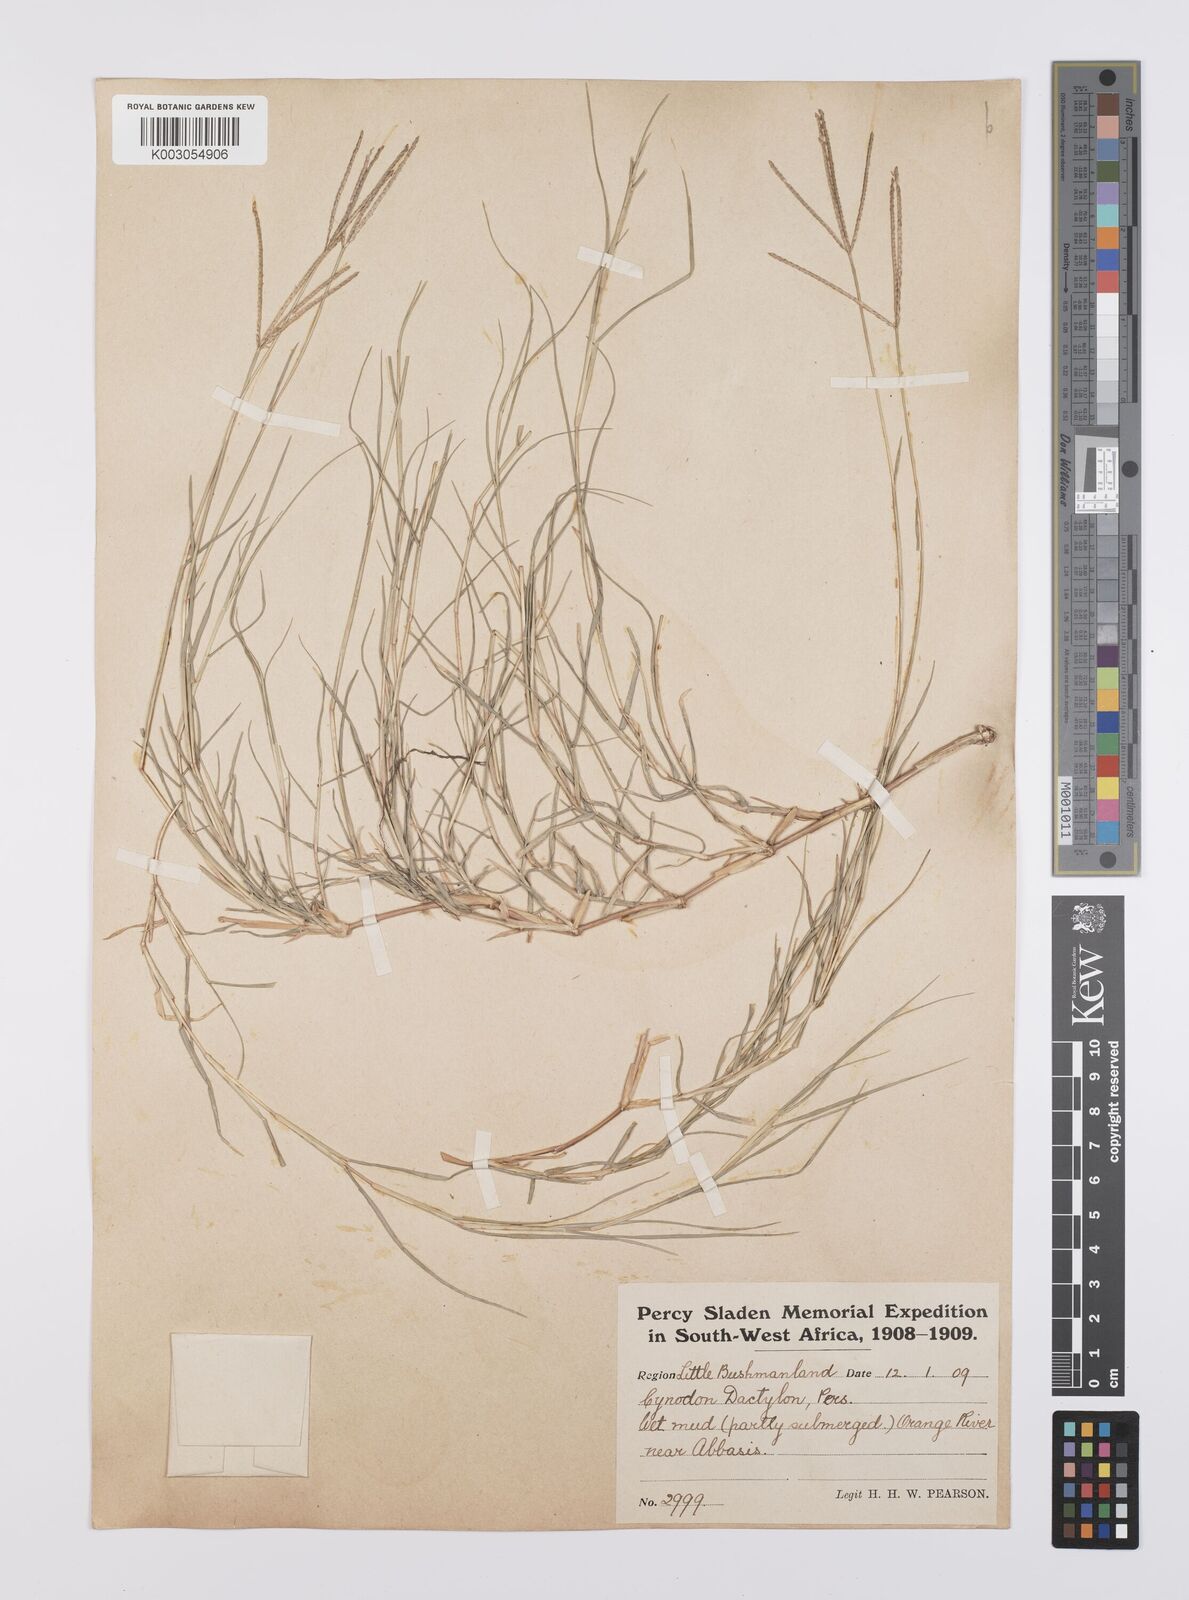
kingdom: Plantae
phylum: Tracheophyta
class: Liliopsida
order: Poales
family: Poaceae
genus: Cynodon
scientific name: Cynodon dactylon
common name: Bermuda grass
